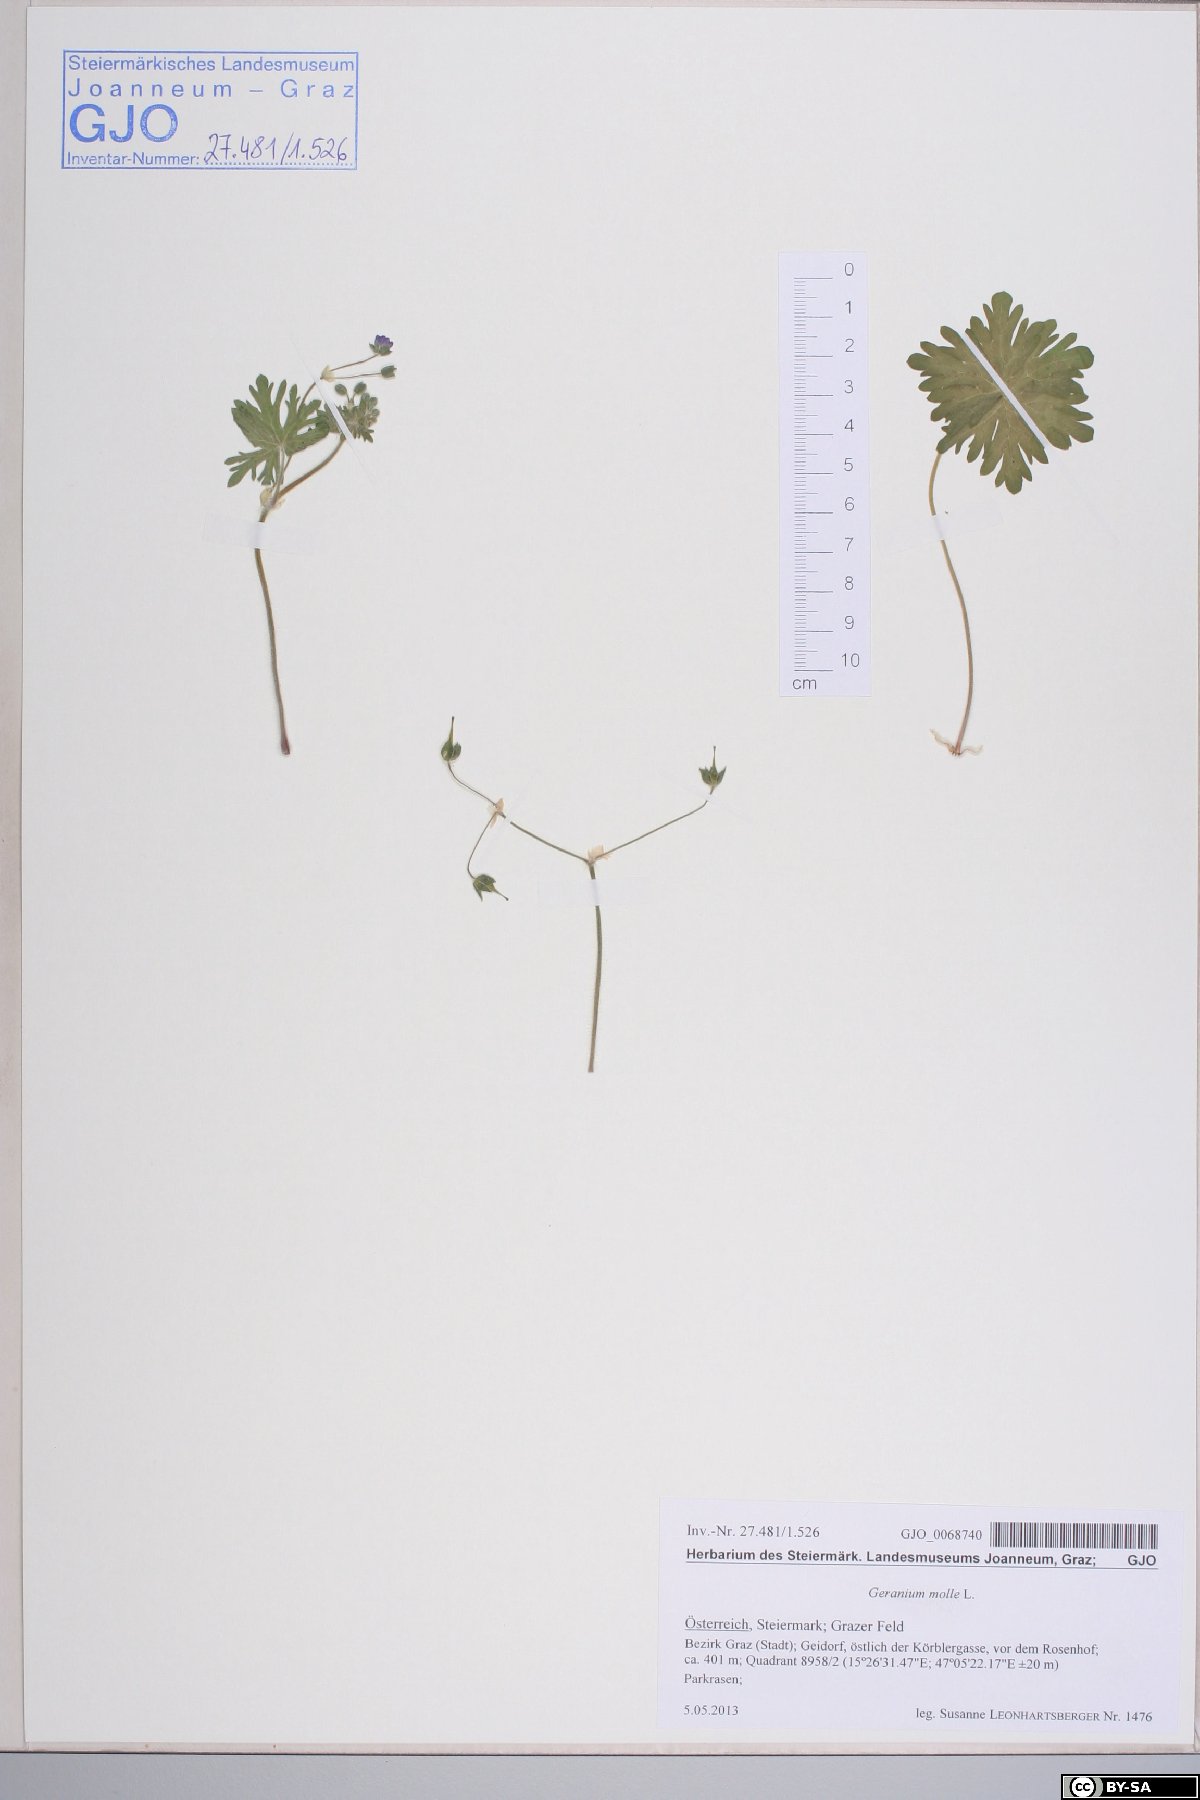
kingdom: Plantae
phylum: Tracheophyta
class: Magnoliopsida
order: Geraniales
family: Geraniaceae
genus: Geranium
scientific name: Geranium molle
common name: Dove's-foot crane's-bill
